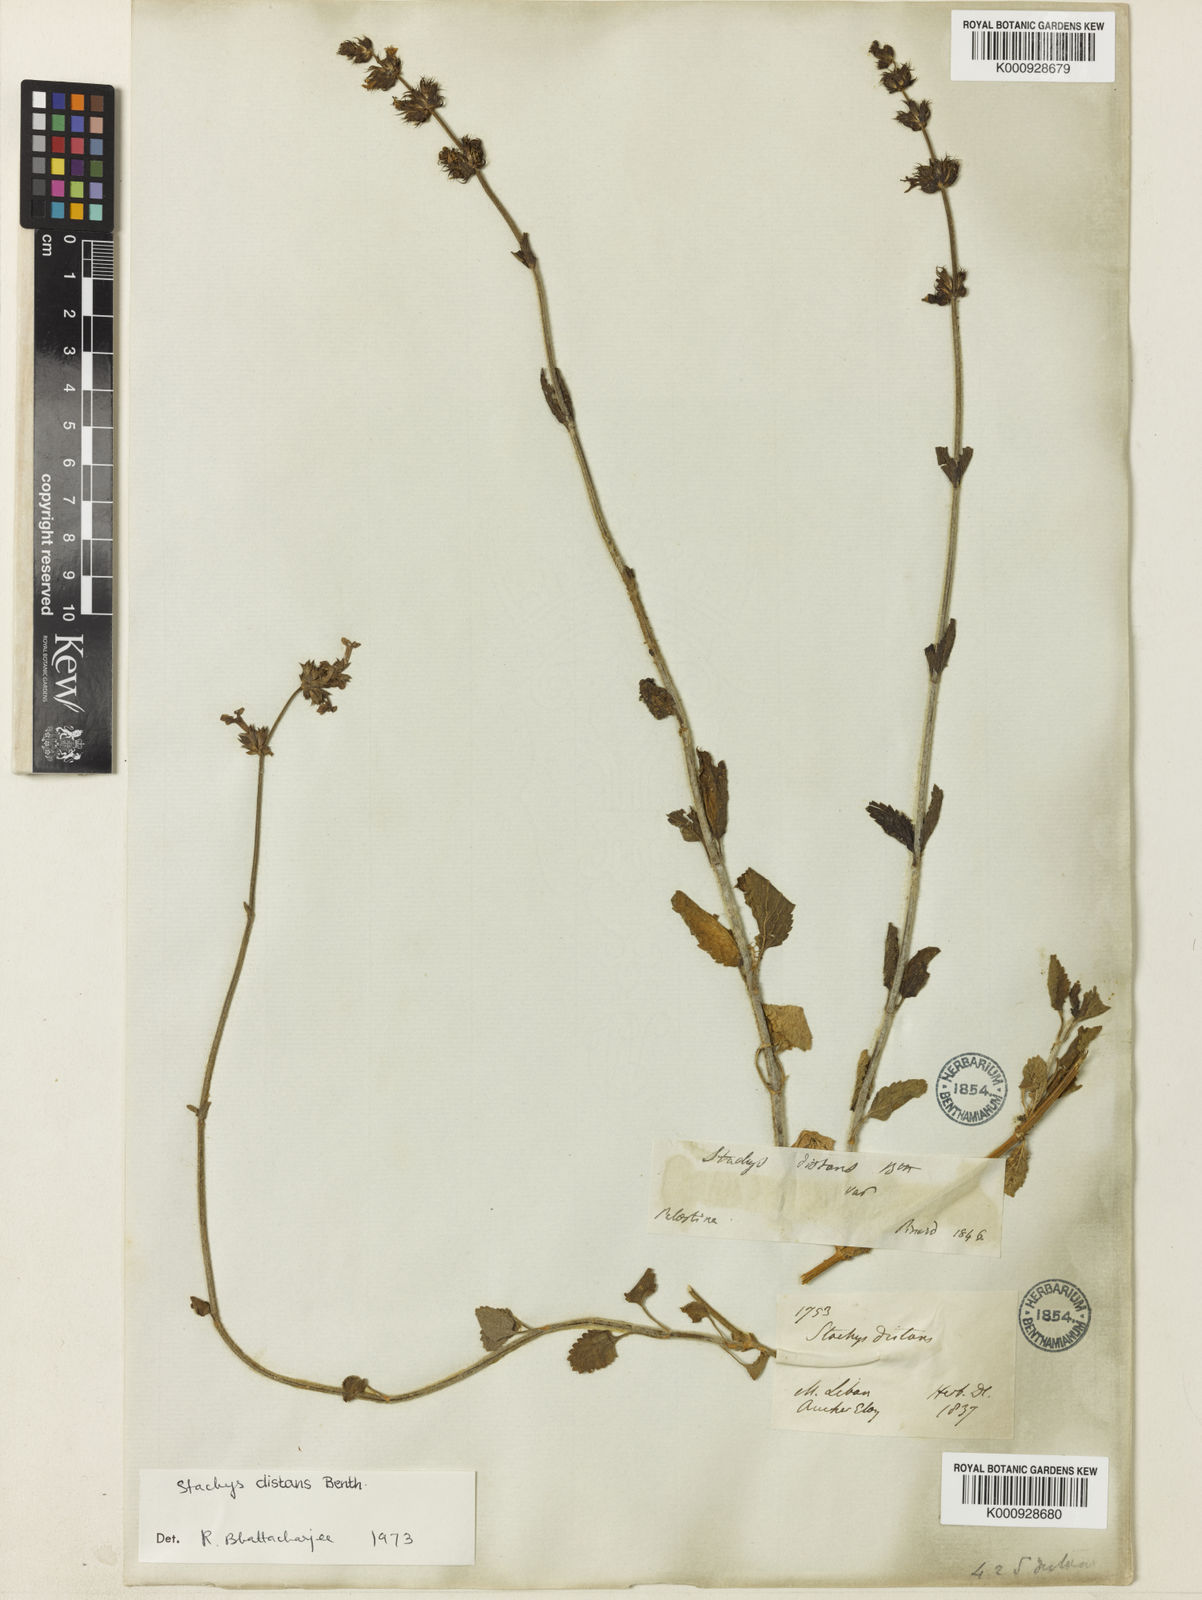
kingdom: Plantae
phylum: Tracheophyta
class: Magnoliopsida
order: Lamiales
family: Lamiaceae
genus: Stachys
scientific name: Stachys distans
